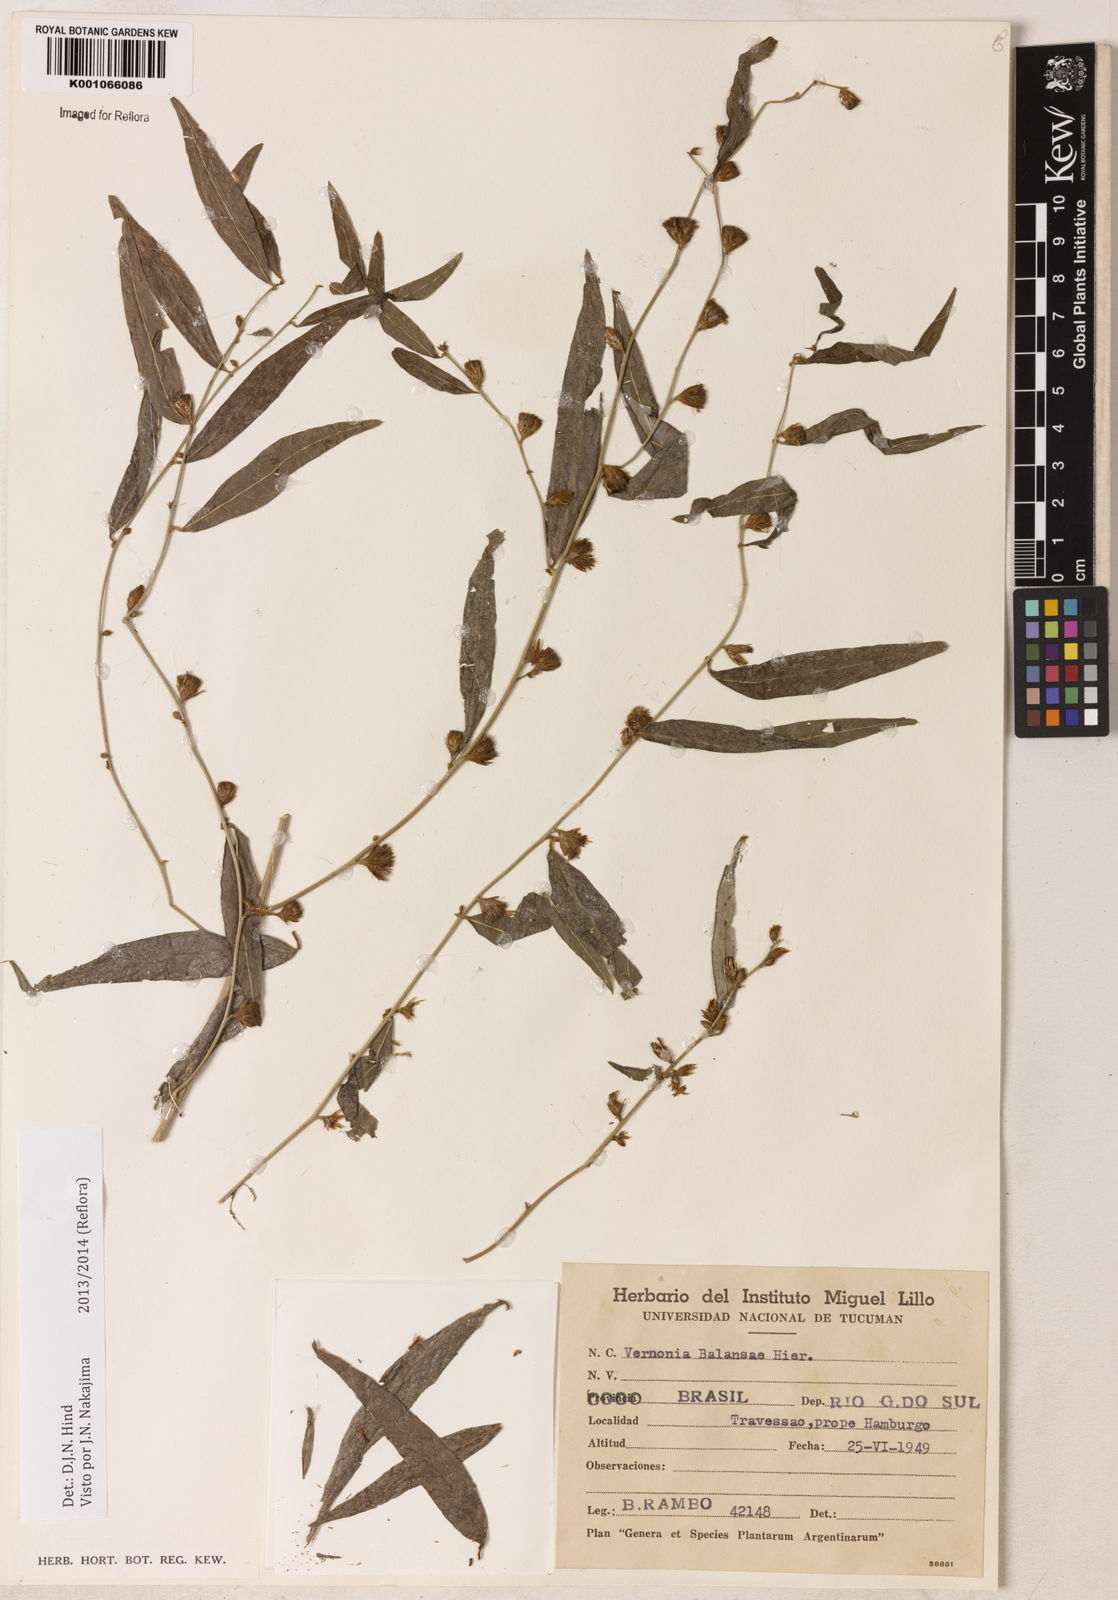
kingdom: Plantae
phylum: Tracheophyta
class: Magnoliopsida
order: Asterales
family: Asteraceae
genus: Vernonia
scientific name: Vernonia balansae
